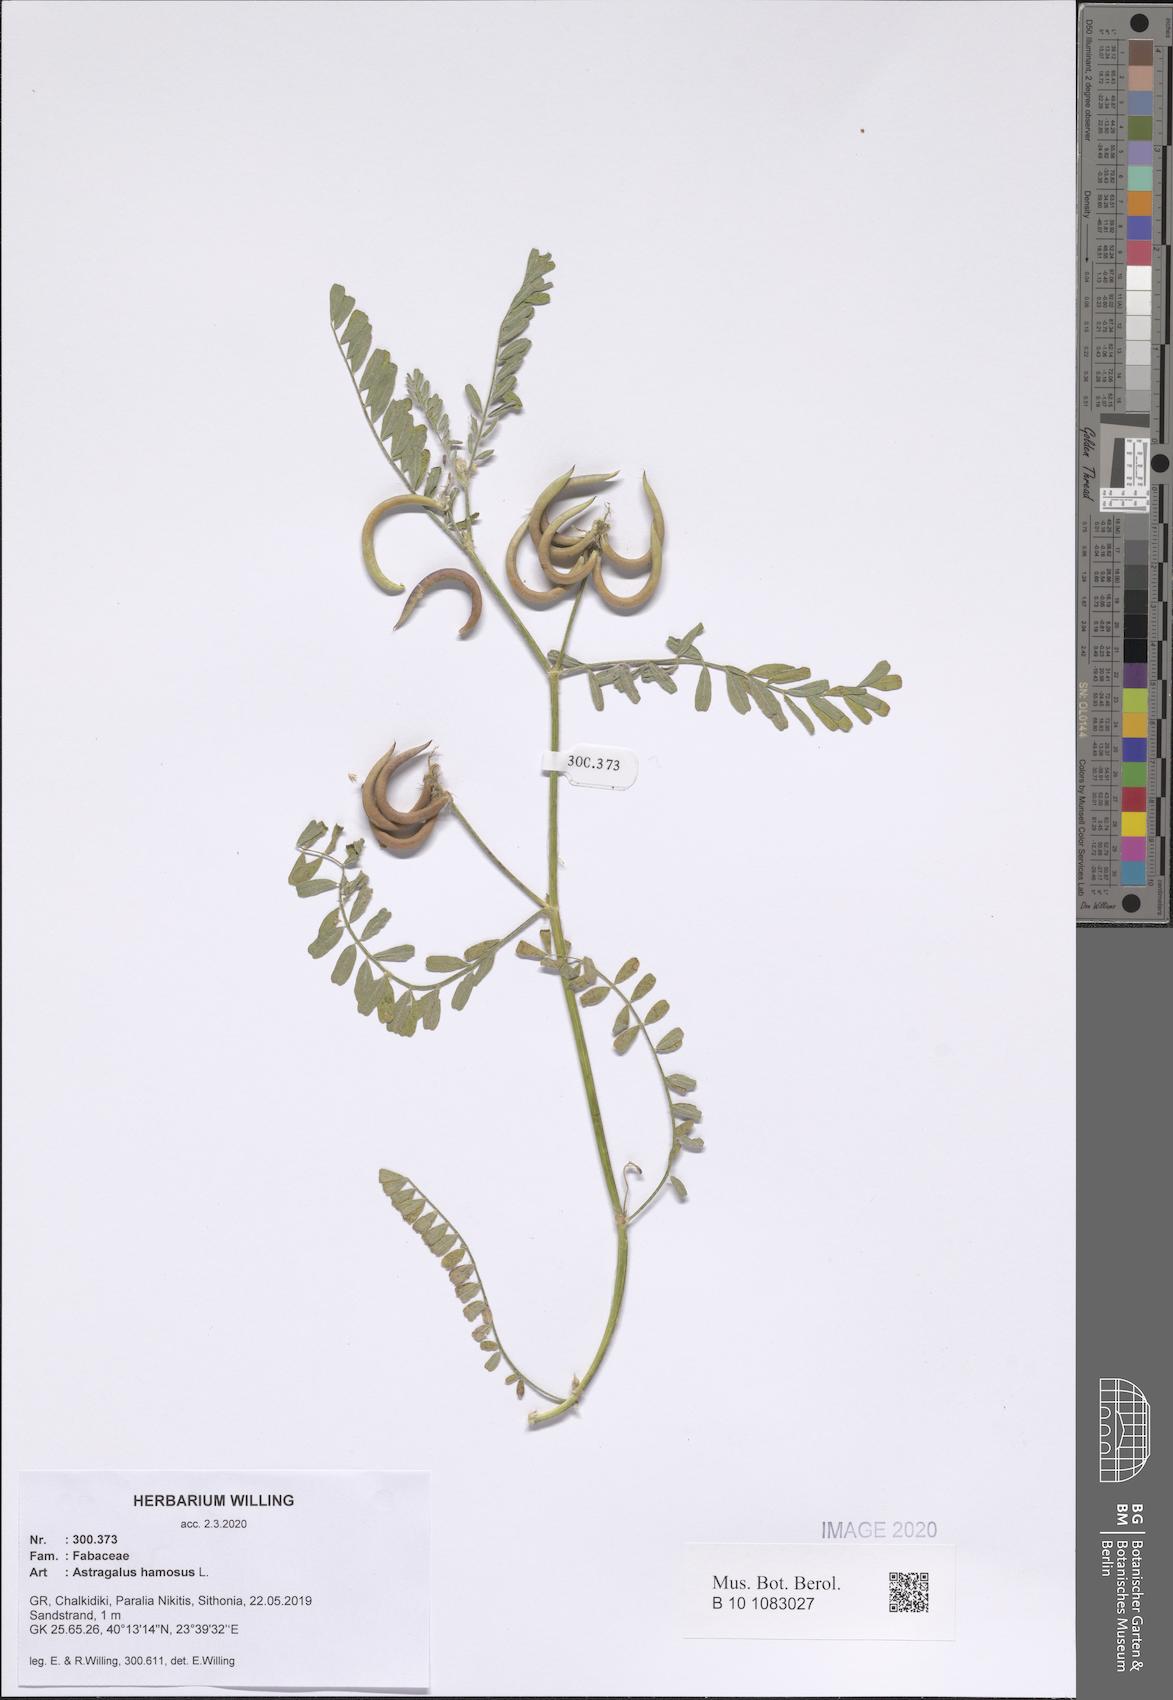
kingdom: Plantae
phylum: Tracheophyta
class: Magnoliopsida
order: Fabales
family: Fabaceae
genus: Astragalus
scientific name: Astragalus hamosus
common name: European milkvetch
